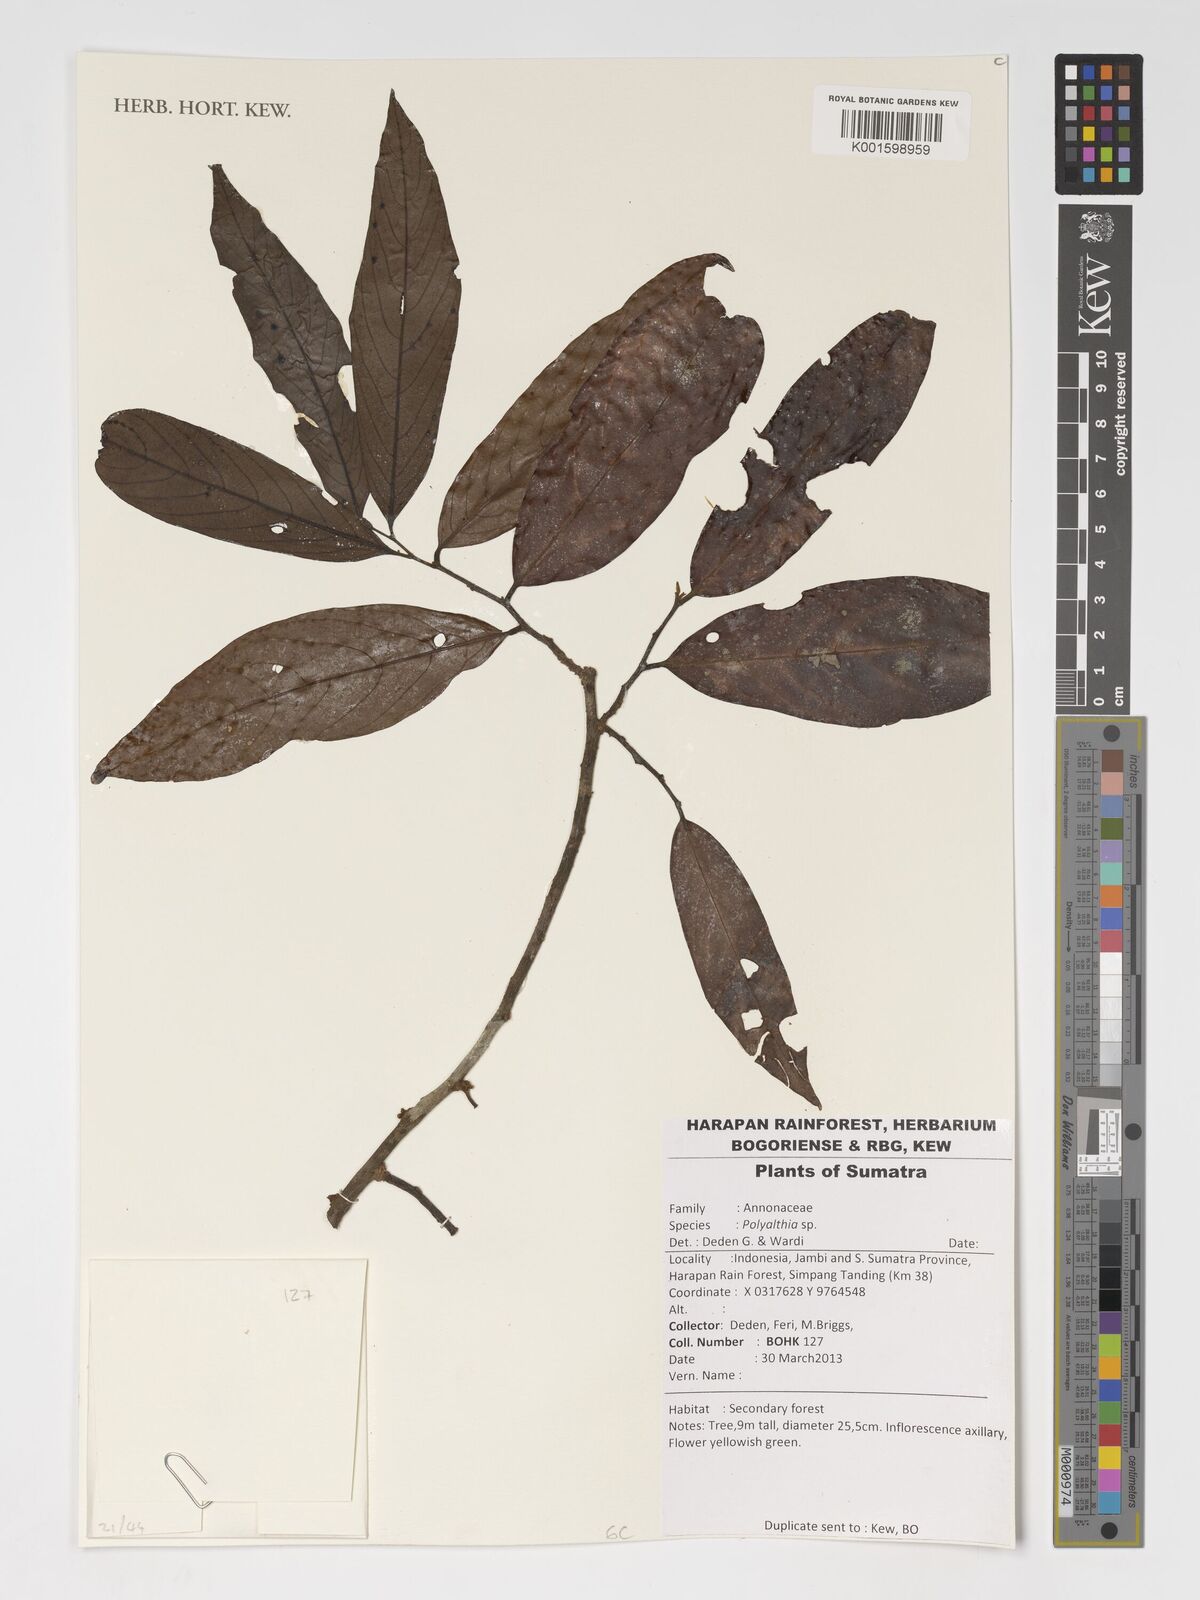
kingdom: Plantae
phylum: Tracheophyta
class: Magnoliopsida
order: Magnoliales
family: Annonaceae
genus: Polyalthia
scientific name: Polyalthia
